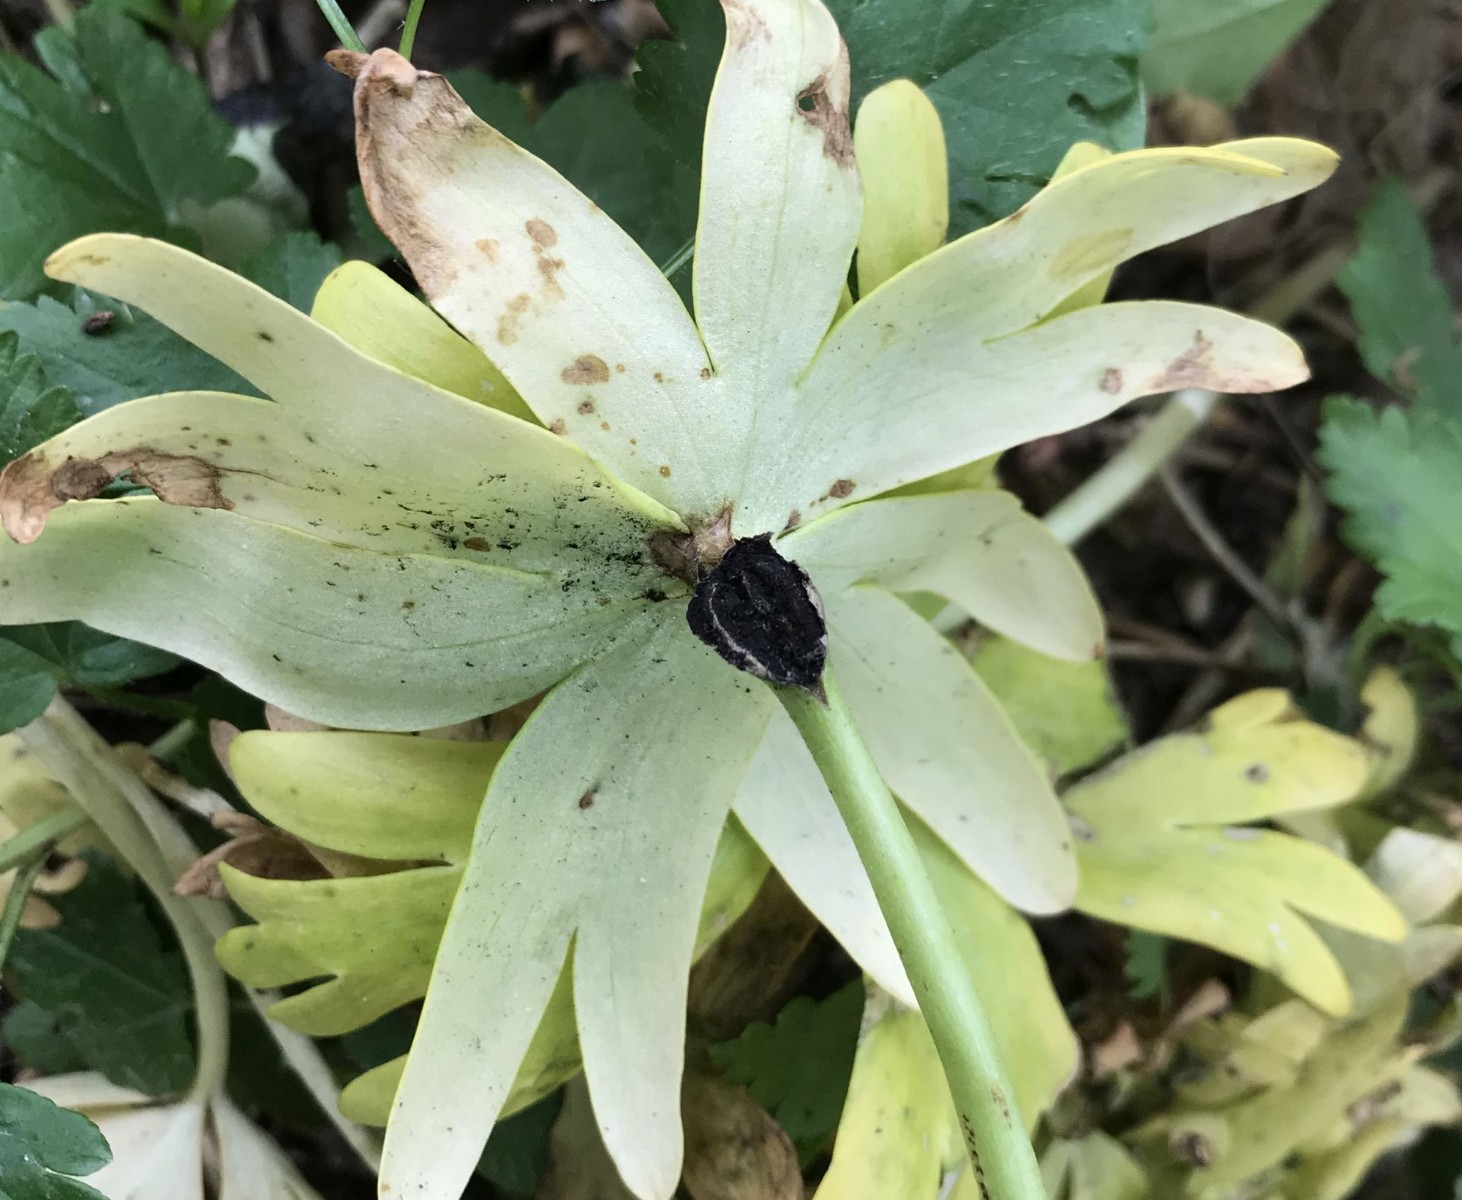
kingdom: Fungi
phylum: Basidiomycota
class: Ustilaginomycetes
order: Urocystidales
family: Urocystidaceae
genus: Urocystis
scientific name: Urocystis eranthidis
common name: erantis-brand
